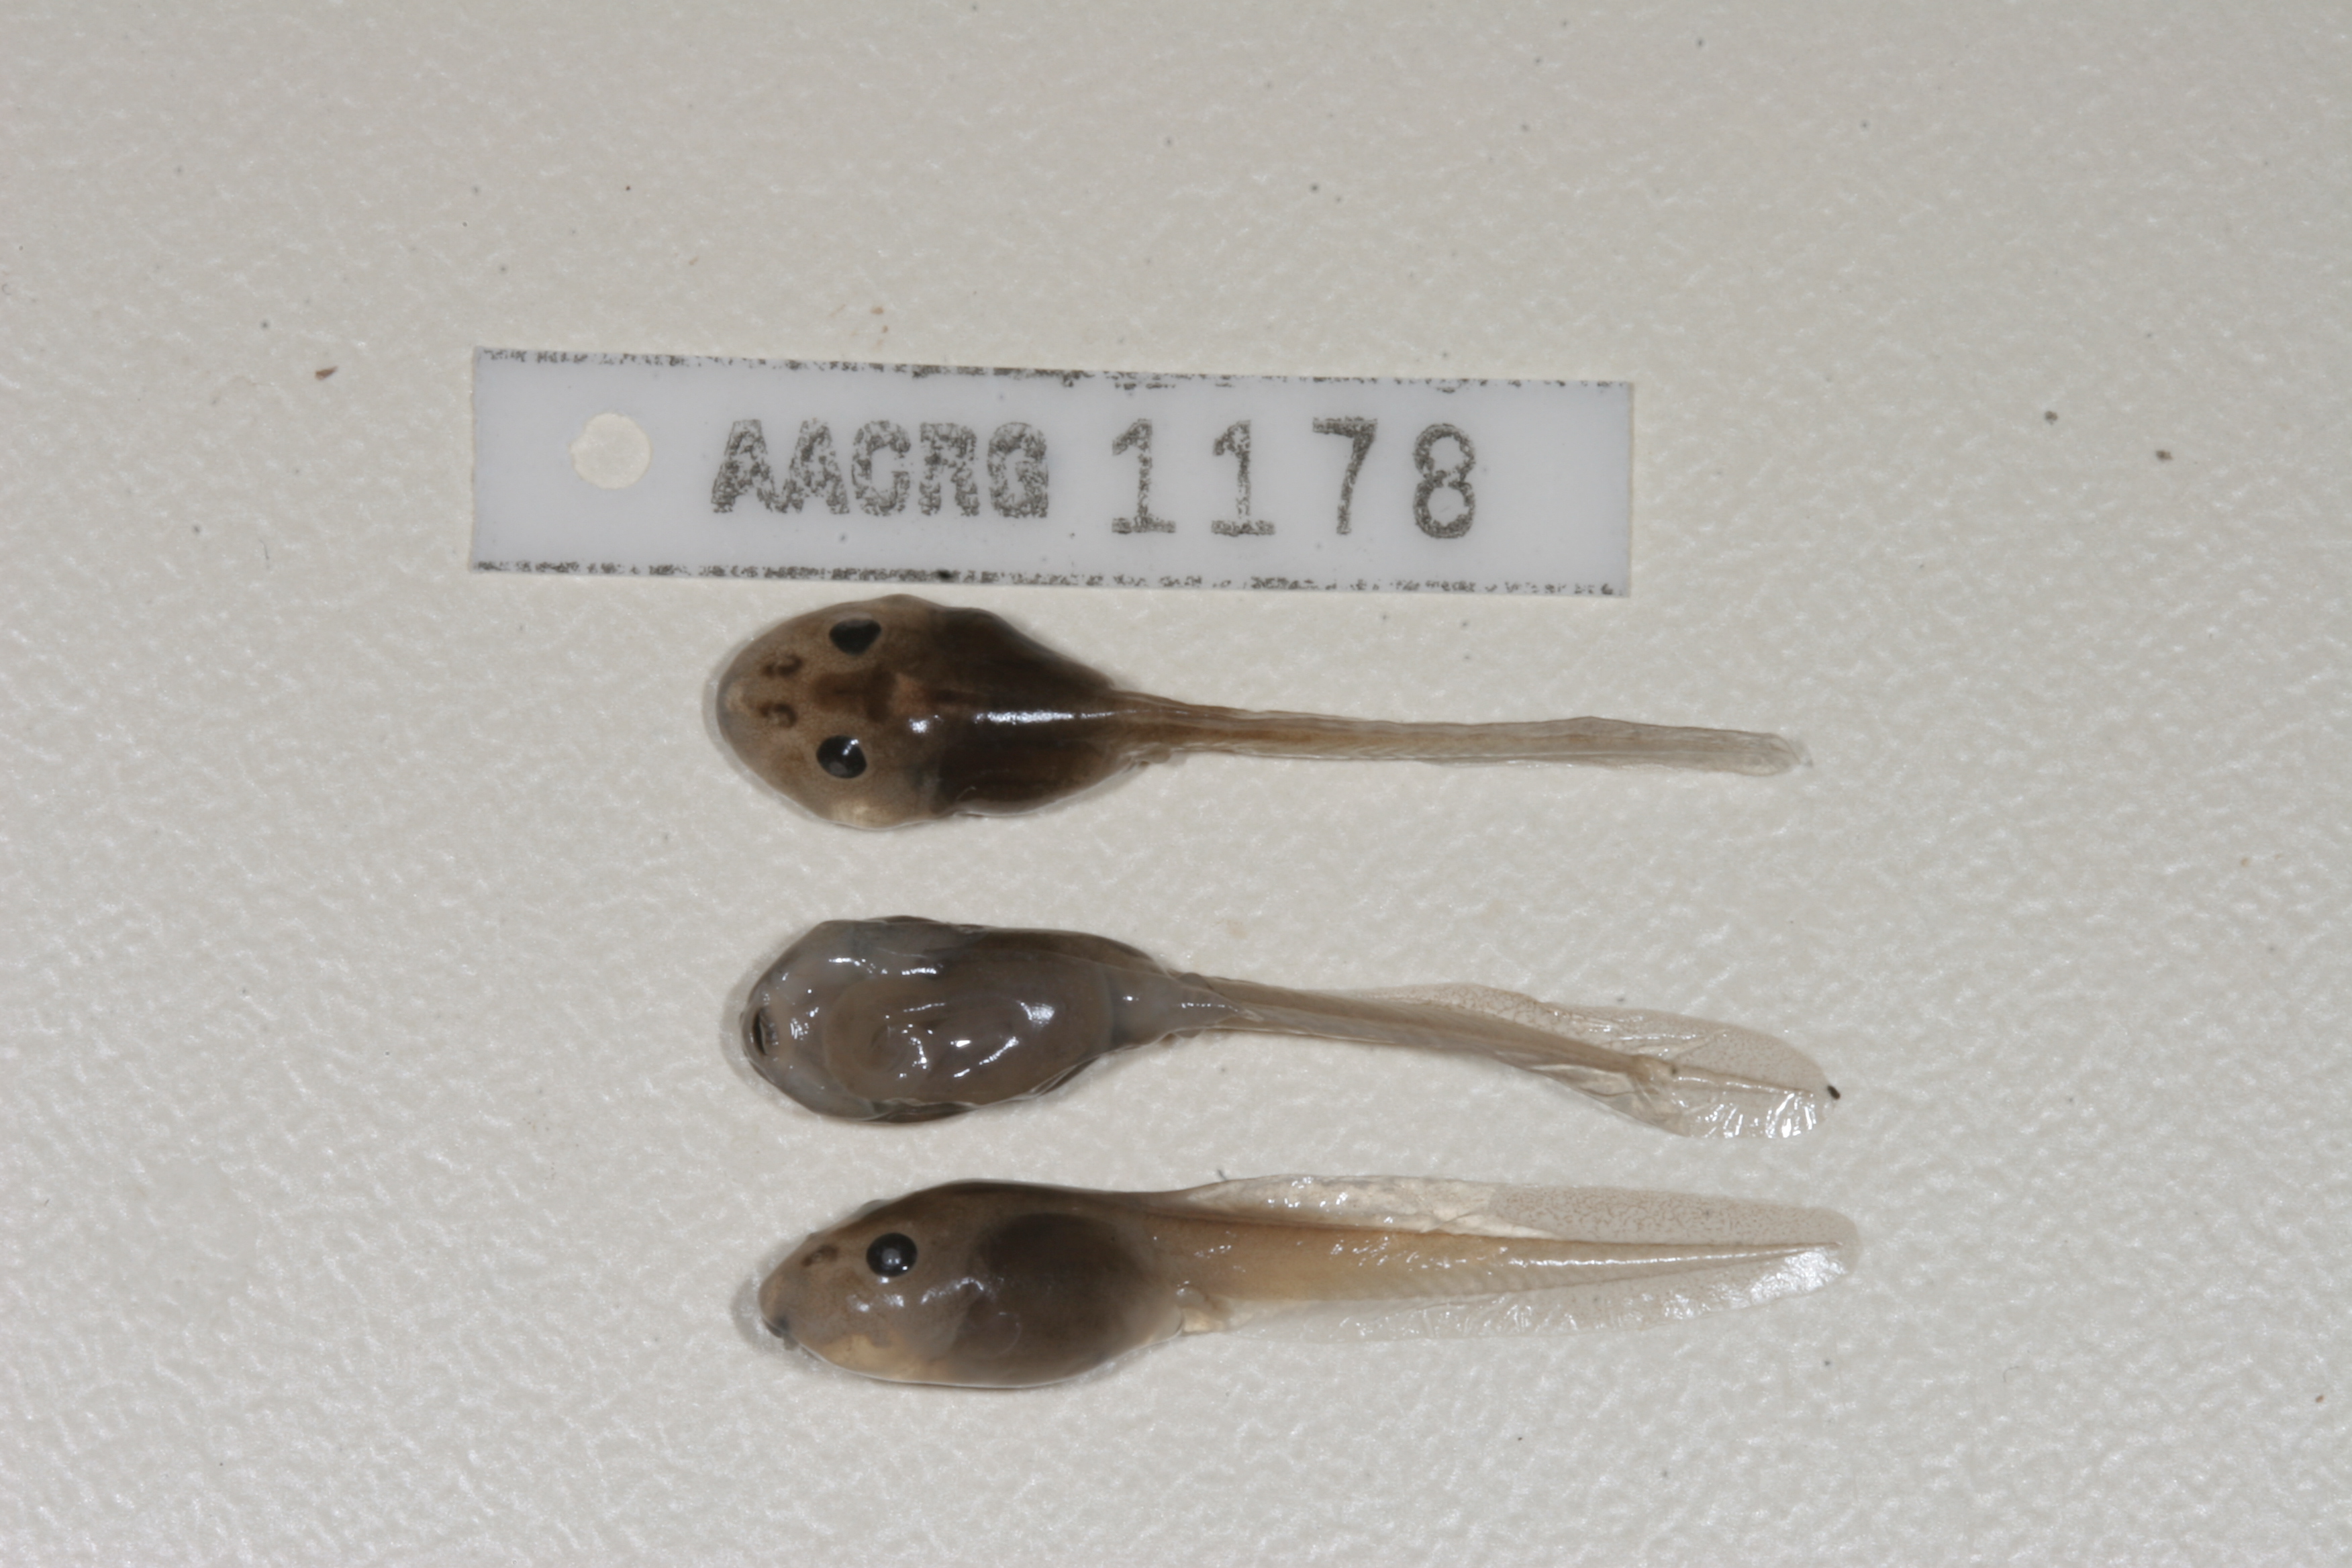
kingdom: Animalia
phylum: Chordata
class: Amphibia
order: Anura
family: Pyxicephalidae
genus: Strongylopus
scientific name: Strongylopus grayii
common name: Gray's stream frog
